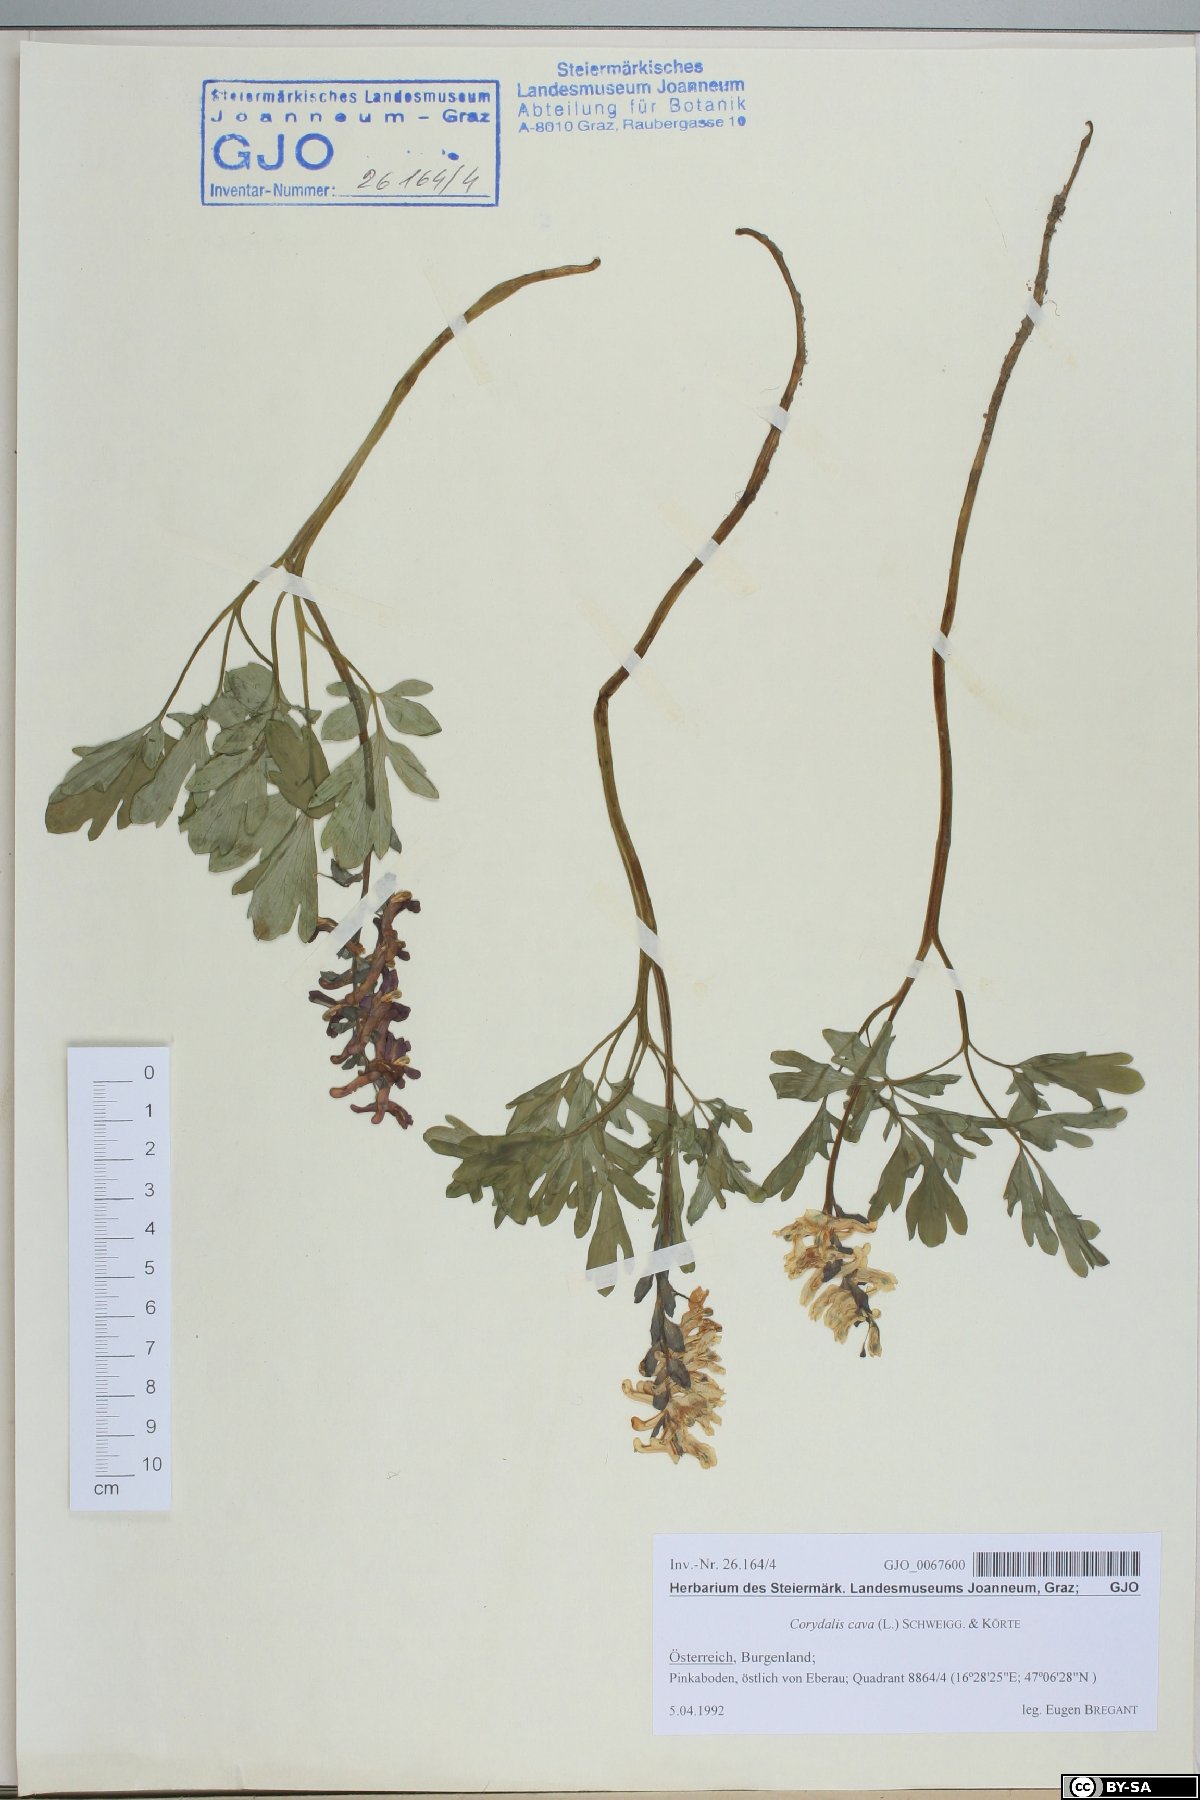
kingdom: Plantae
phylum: Tracheophyta
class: Magnoliopsida
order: Ranunculales
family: Papaveraceae
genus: Corydalis
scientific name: Corydalis cava
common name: Hollowroot
